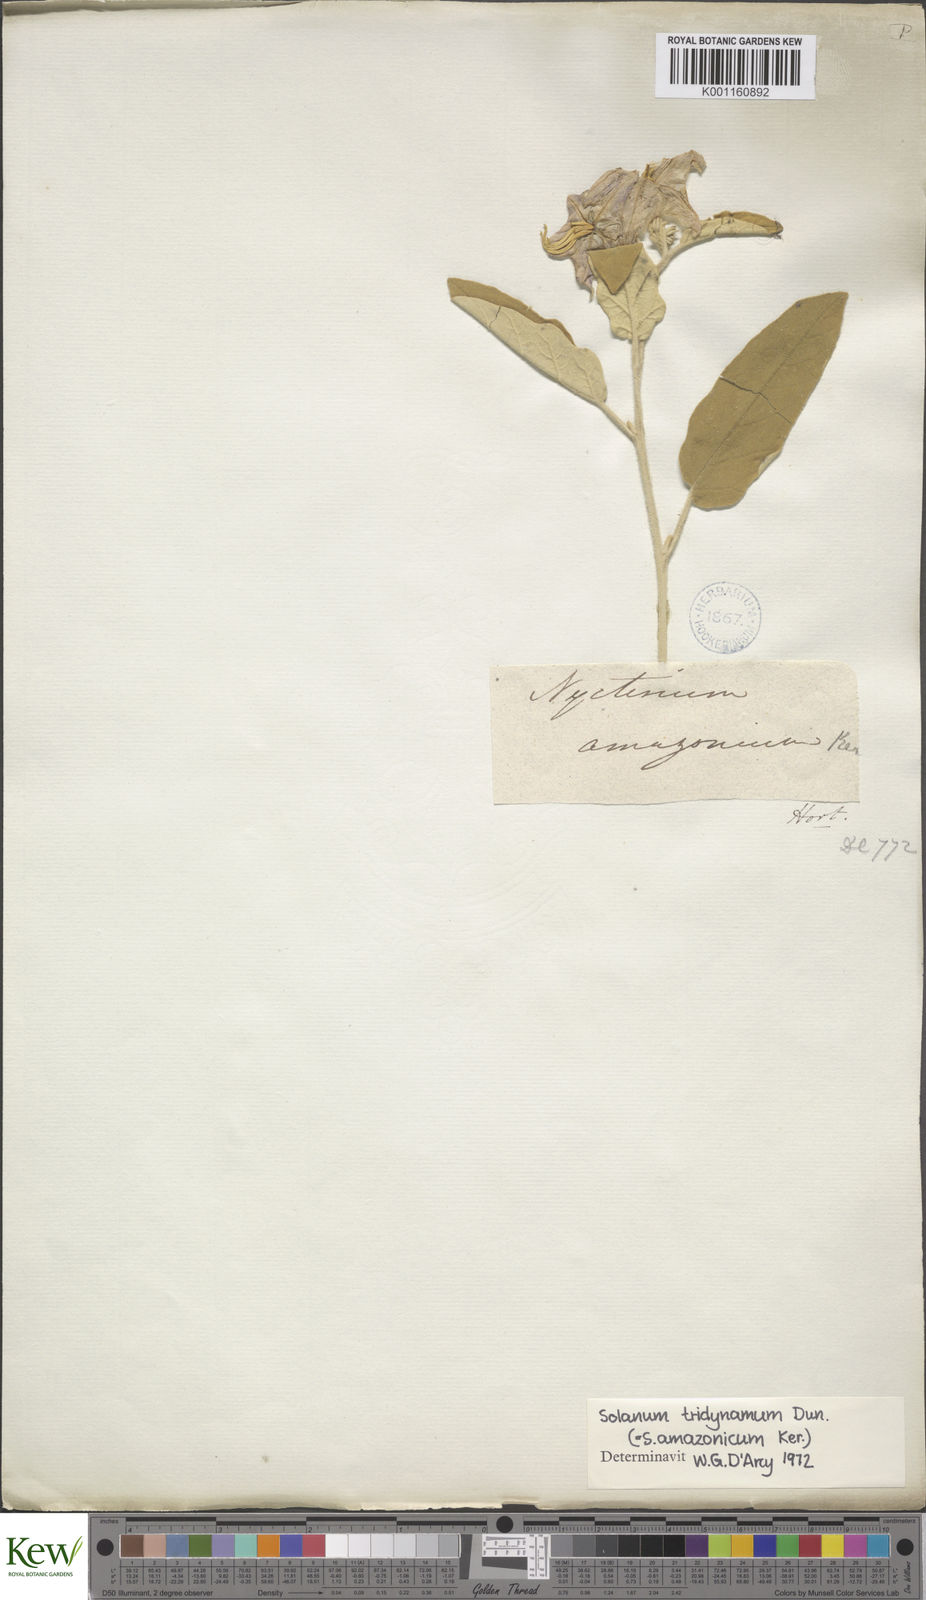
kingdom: Plantae
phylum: Tracheophyta
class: Magnoliopsida
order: Solanales
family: Solanaceae
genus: Solanum
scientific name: Solanum houstonii
